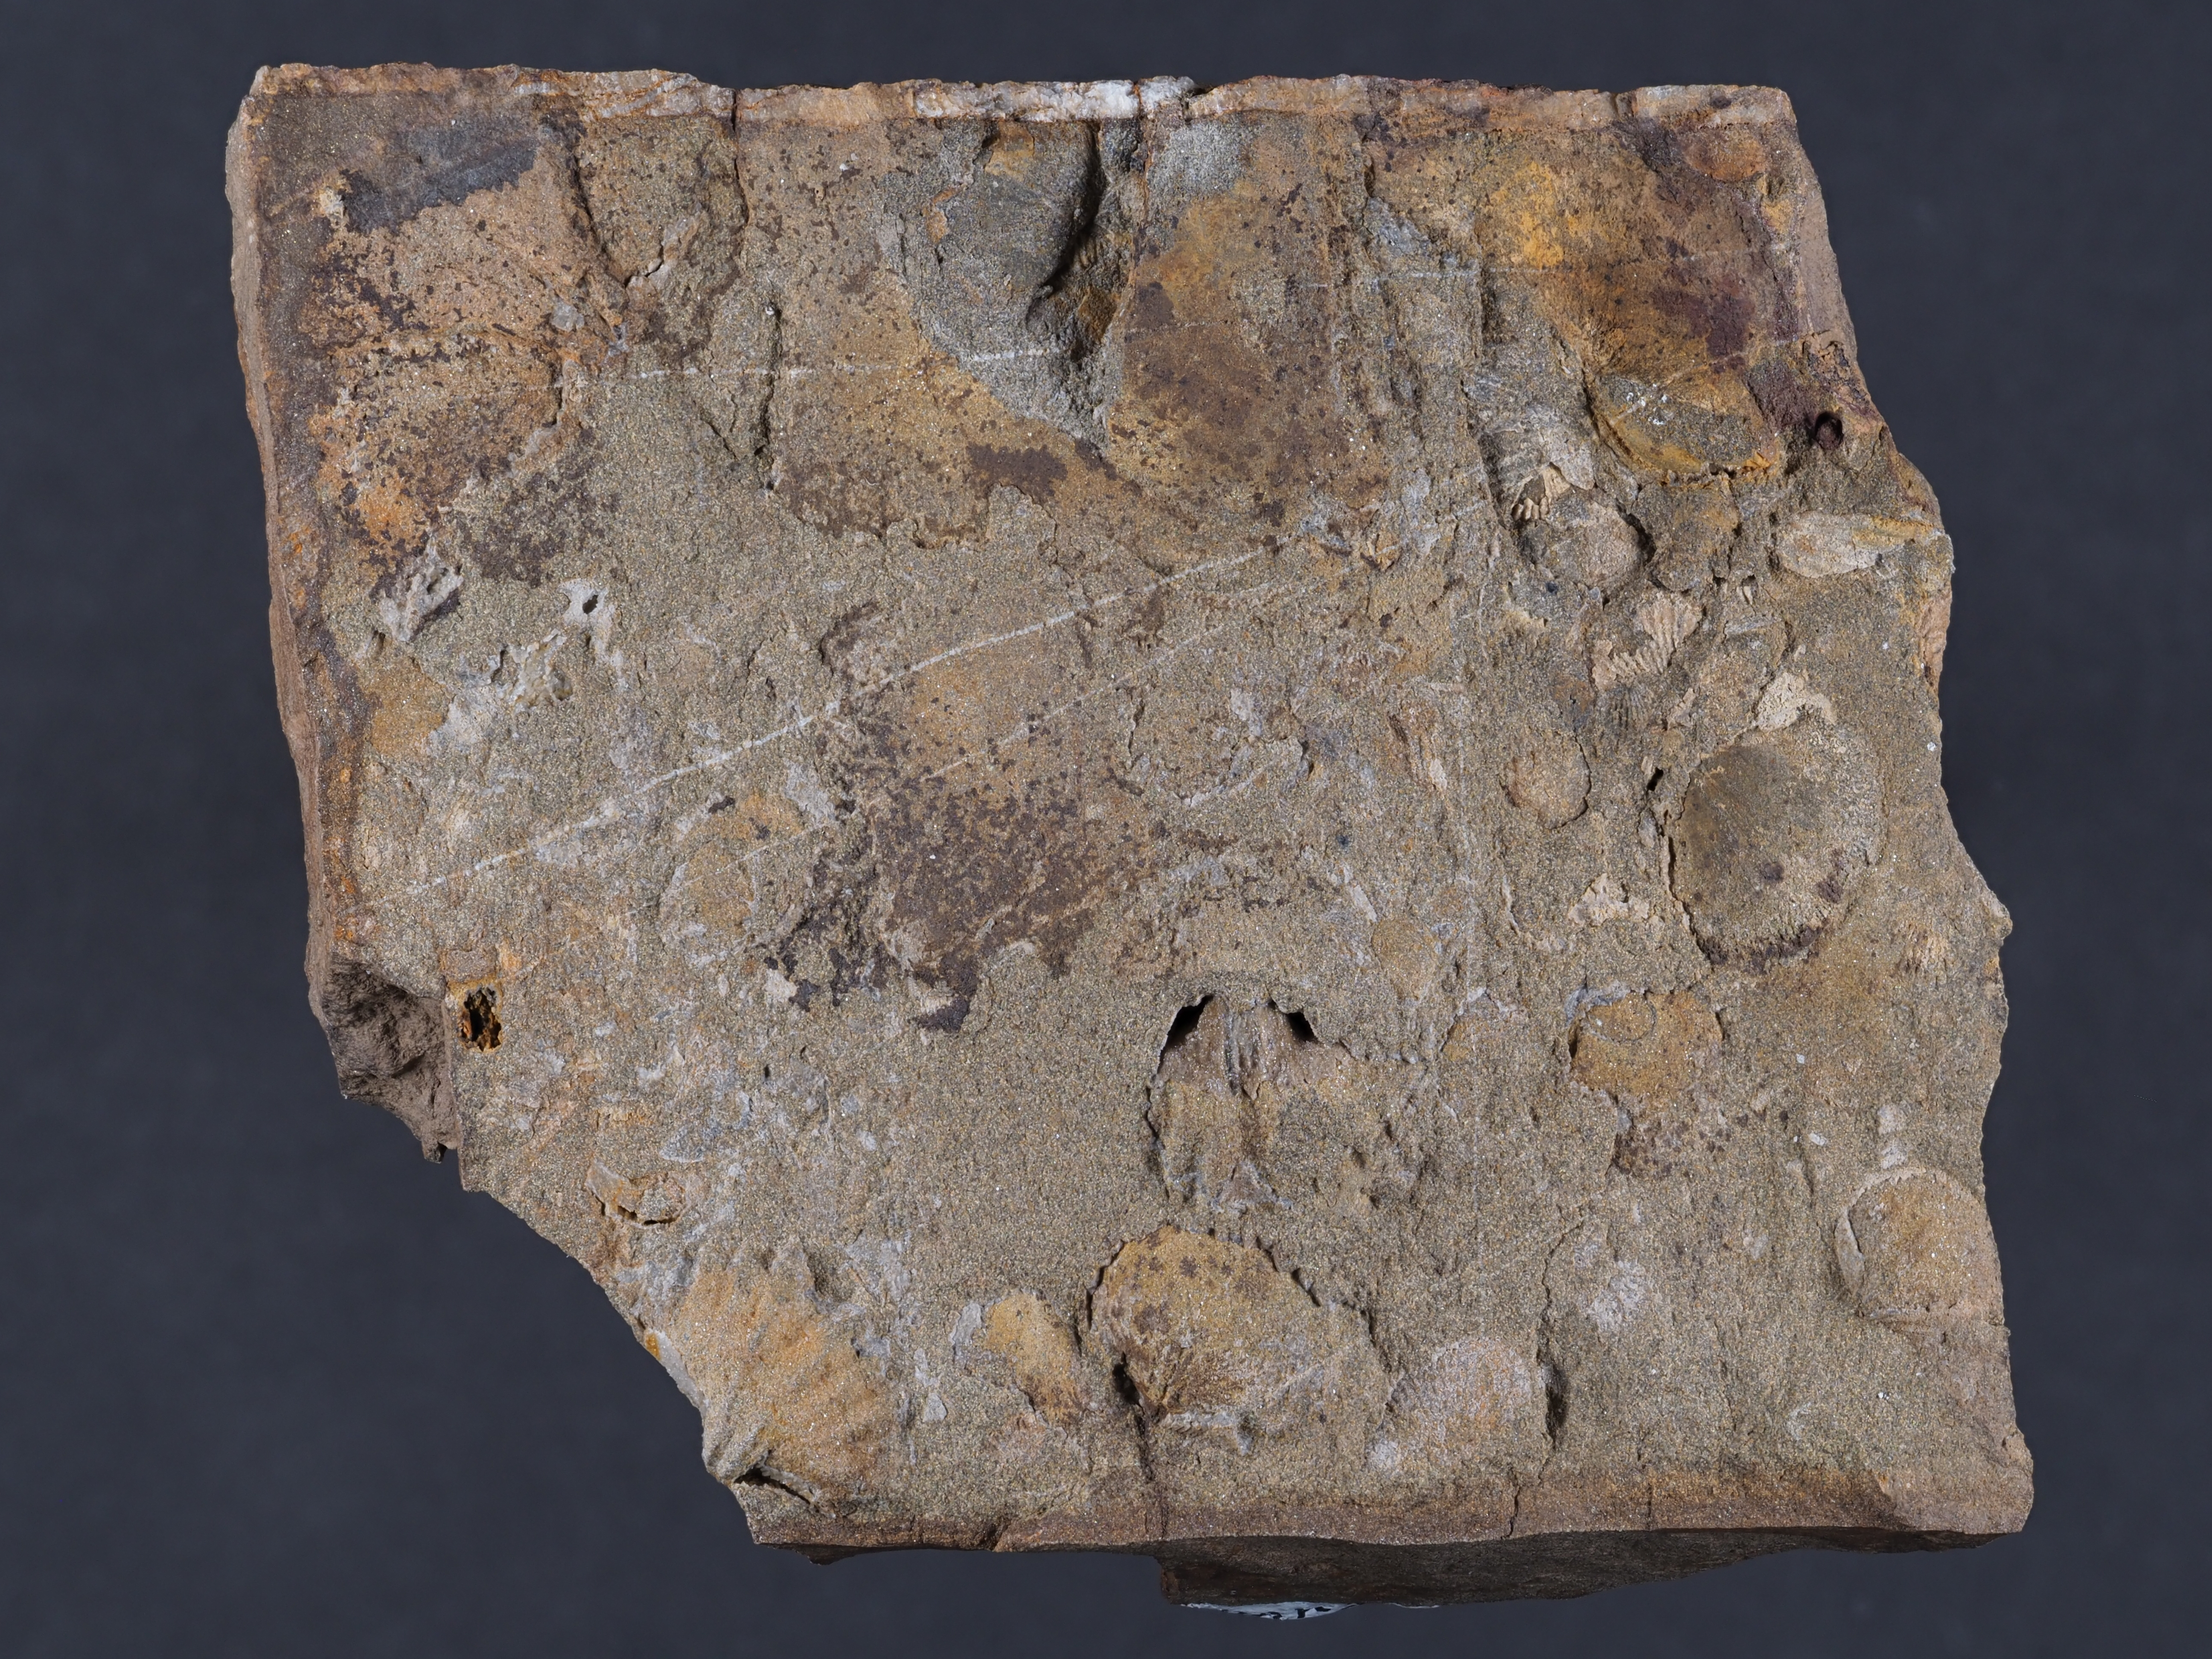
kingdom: Animalia
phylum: Brachiopoda
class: Rhynchonellata
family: Hysterolitidae
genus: Arduspirifer
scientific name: Arduspirifer
